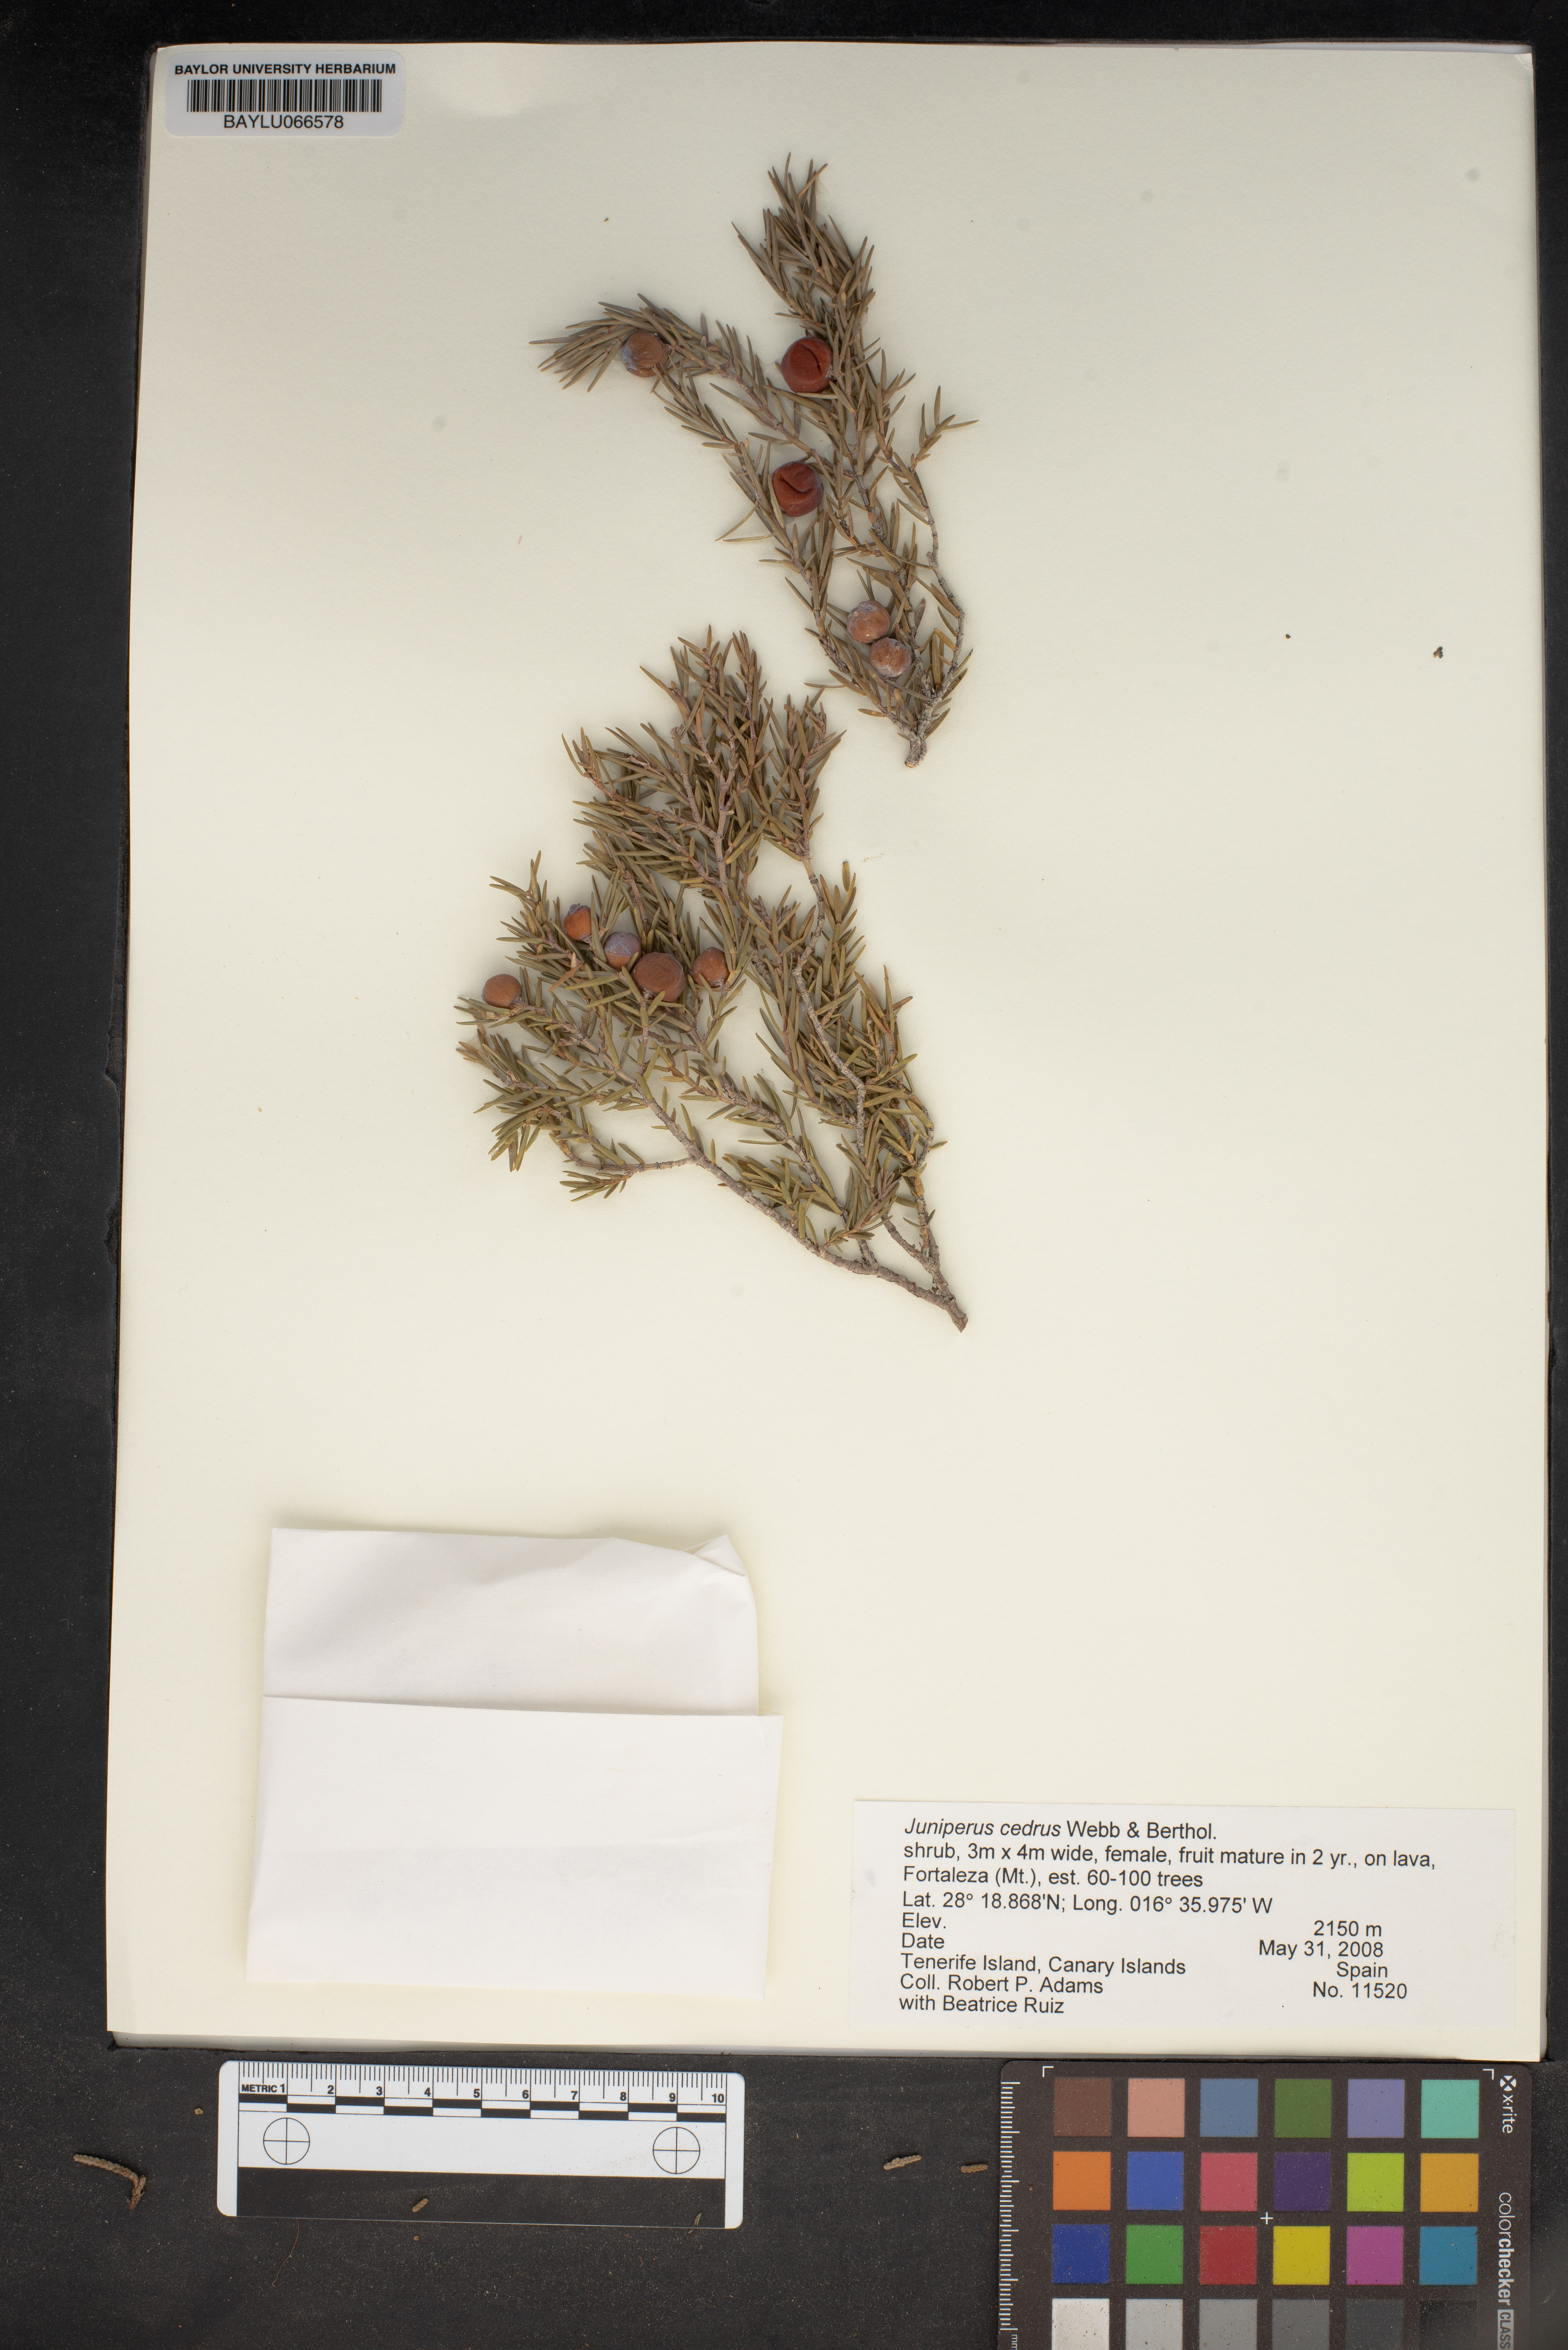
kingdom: Plantae
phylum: Tracheophyta
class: Pinopsida
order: Pinales
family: Cupressaceae
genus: Juniperus
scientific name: Juniperus cedrus
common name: Canary islands juniper
